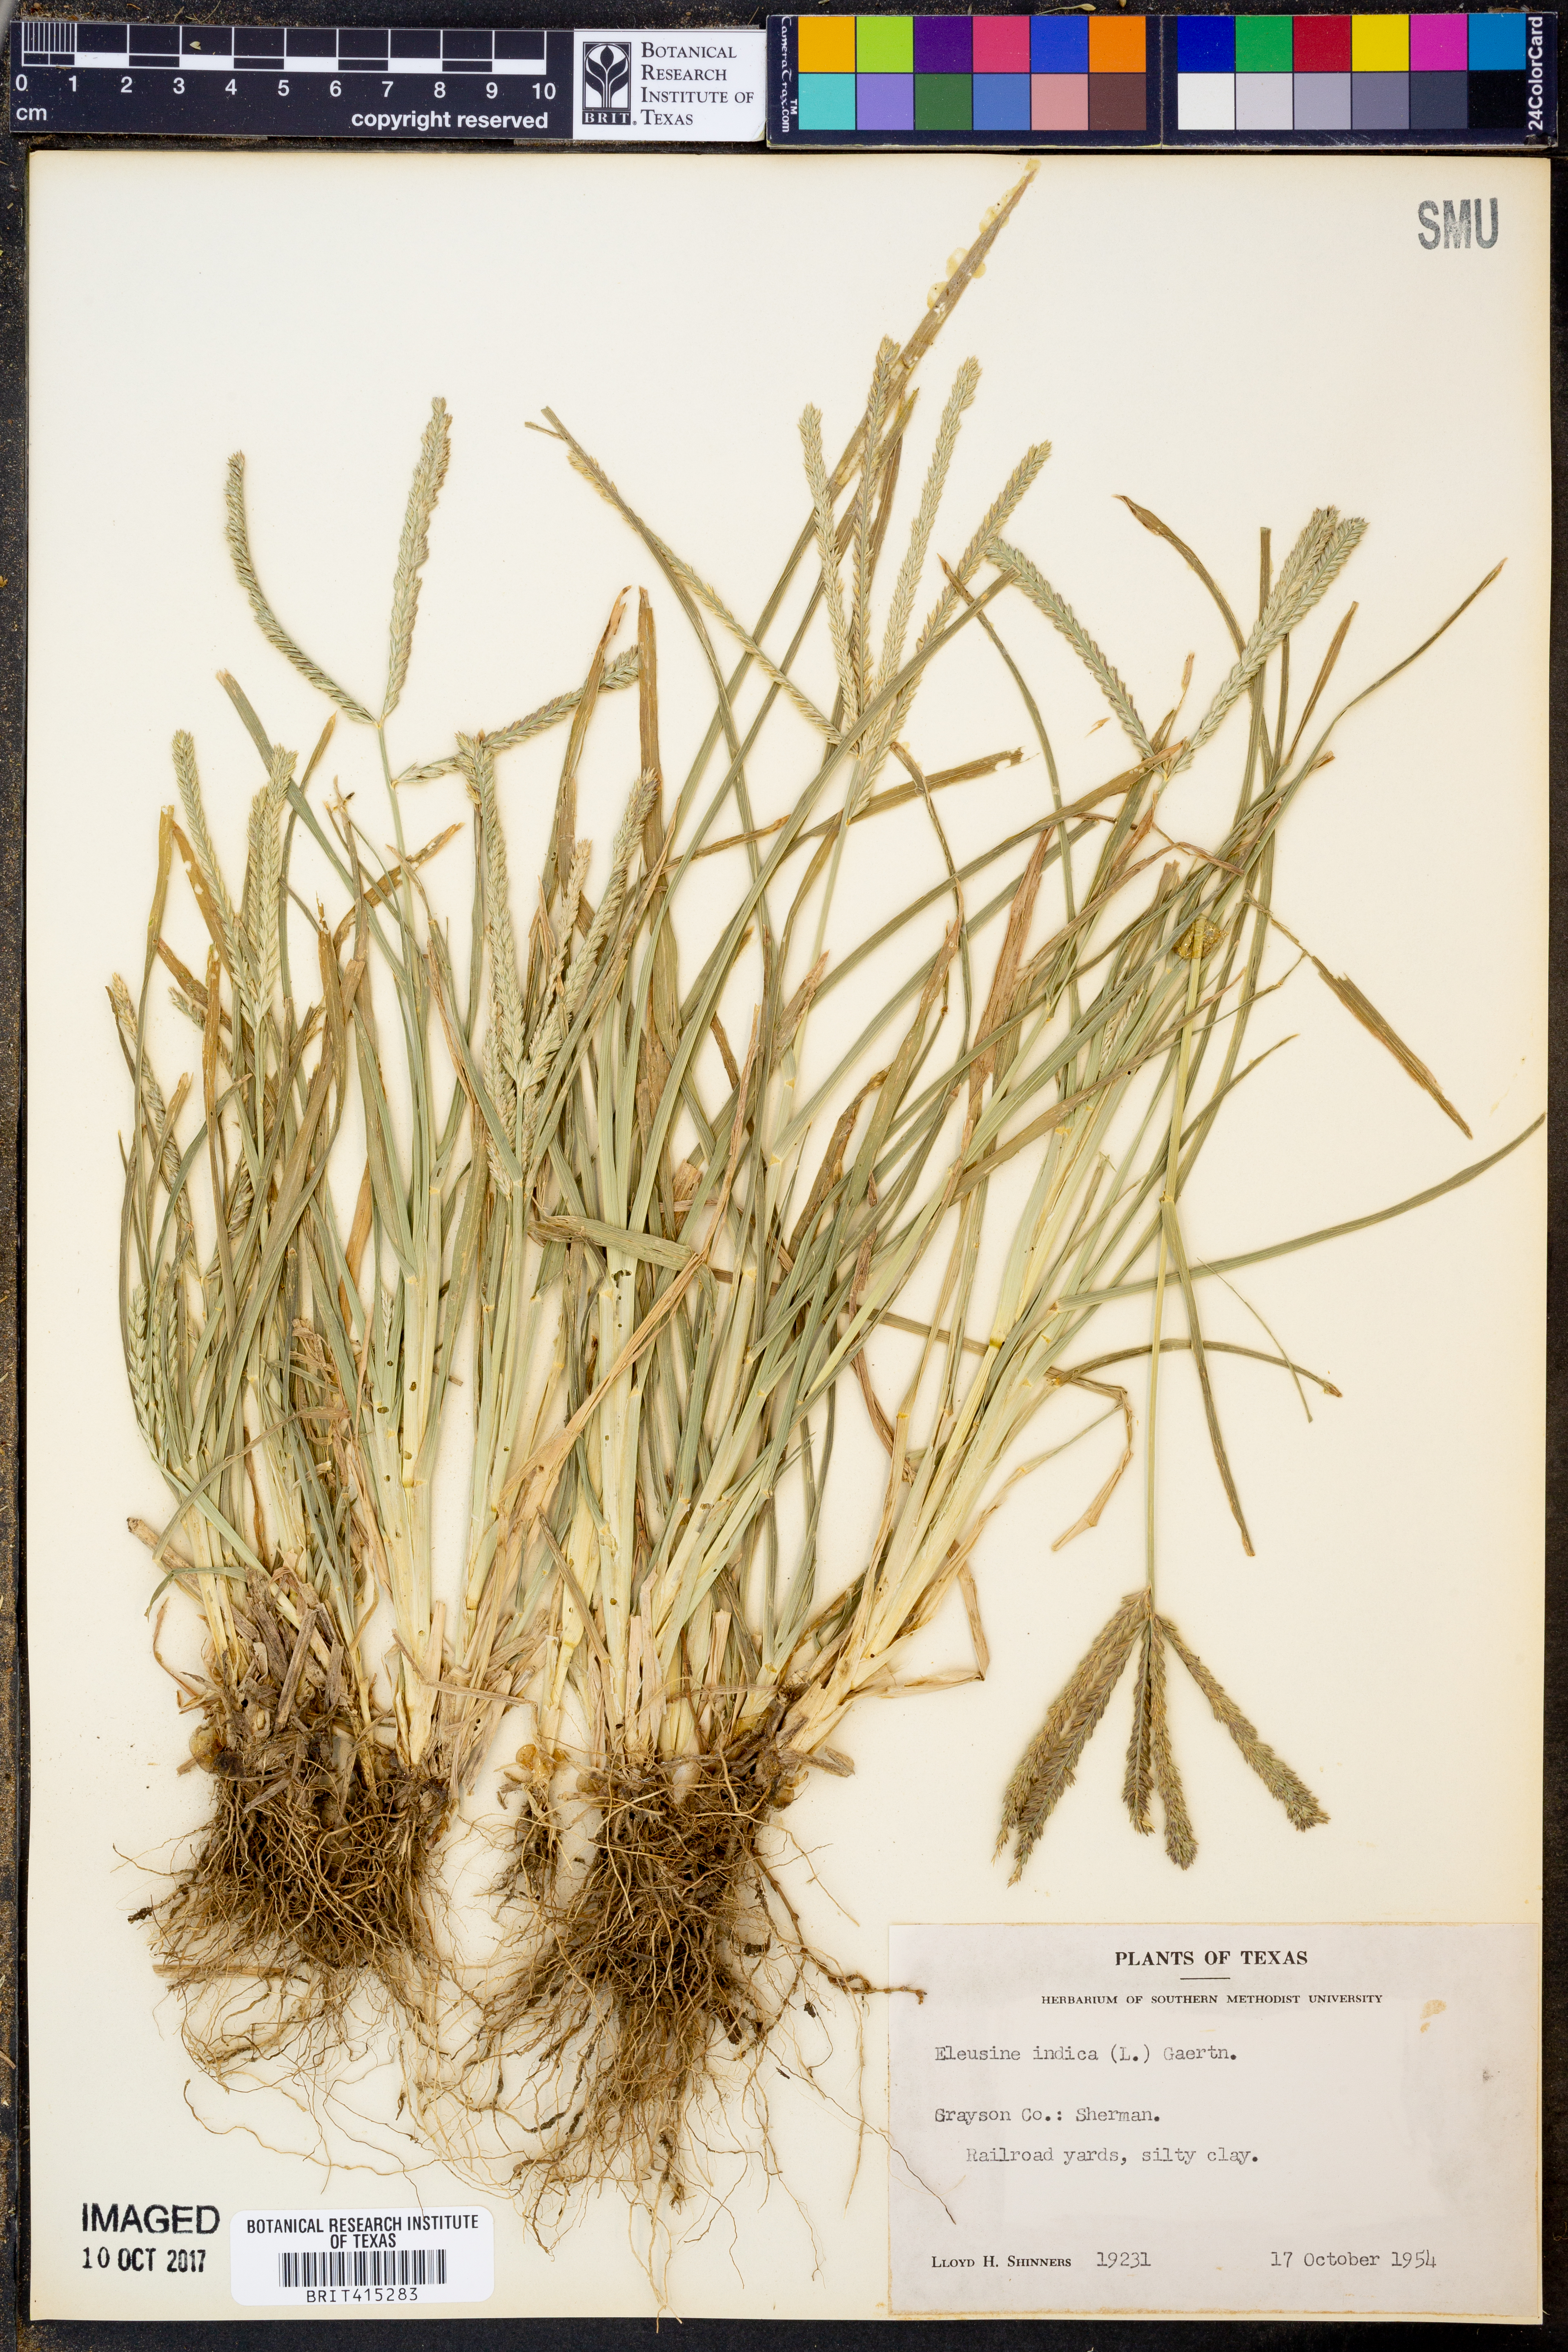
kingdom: Plantae
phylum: Tracheophyta
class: Liliopsida
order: Poales
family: Poaceae
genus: Eleusine
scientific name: Eleusine indica
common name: Yard-grass
